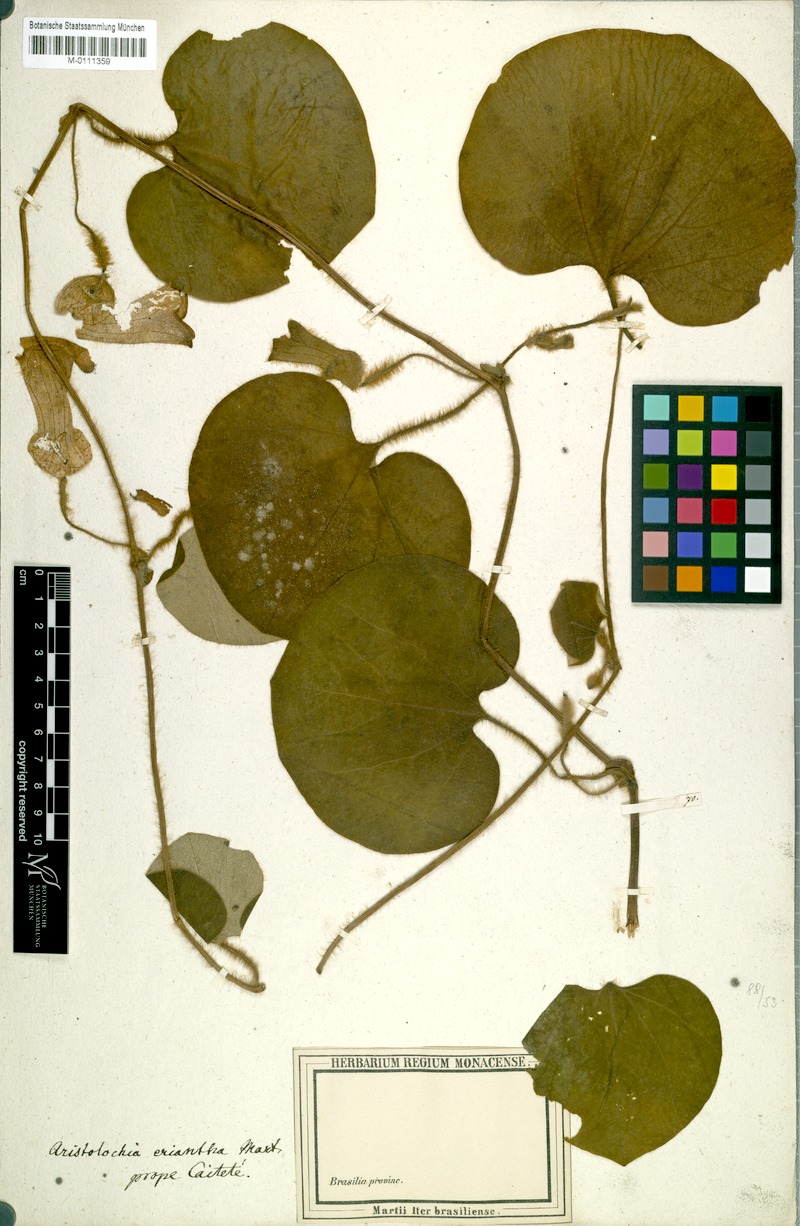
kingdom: Plantae
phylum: Tracheophyta
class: Magnoliopsida
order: Piperales
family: Aristolochiaceae
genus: Aristolochia
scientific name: Aristolochia eriantha
